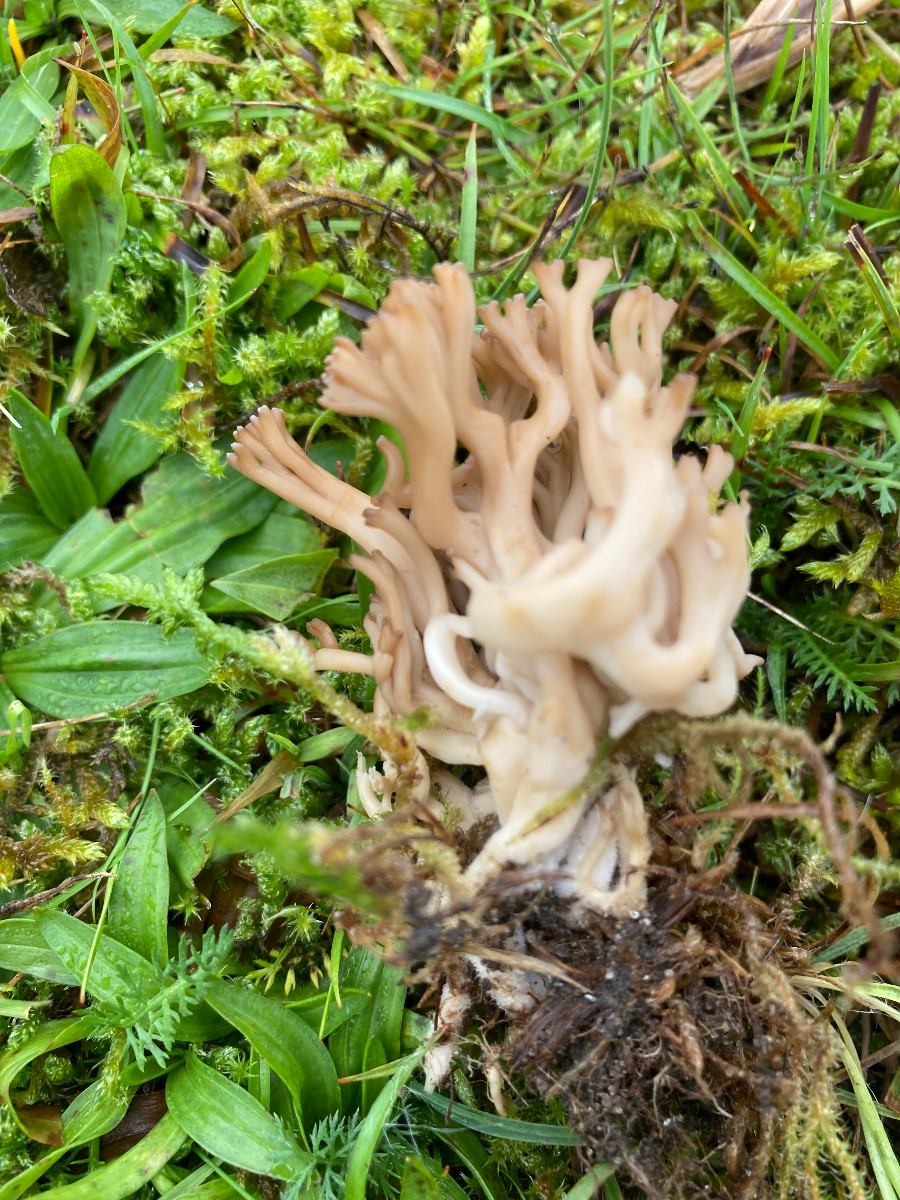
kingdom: Fungi
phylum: Basidiomycota
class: Agaricomycetes
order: Agaricales
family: Clavariaceae
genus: Clavulinopsis
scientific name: Clavulinopsis umbrinella
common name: gulgrå køllesvamp
